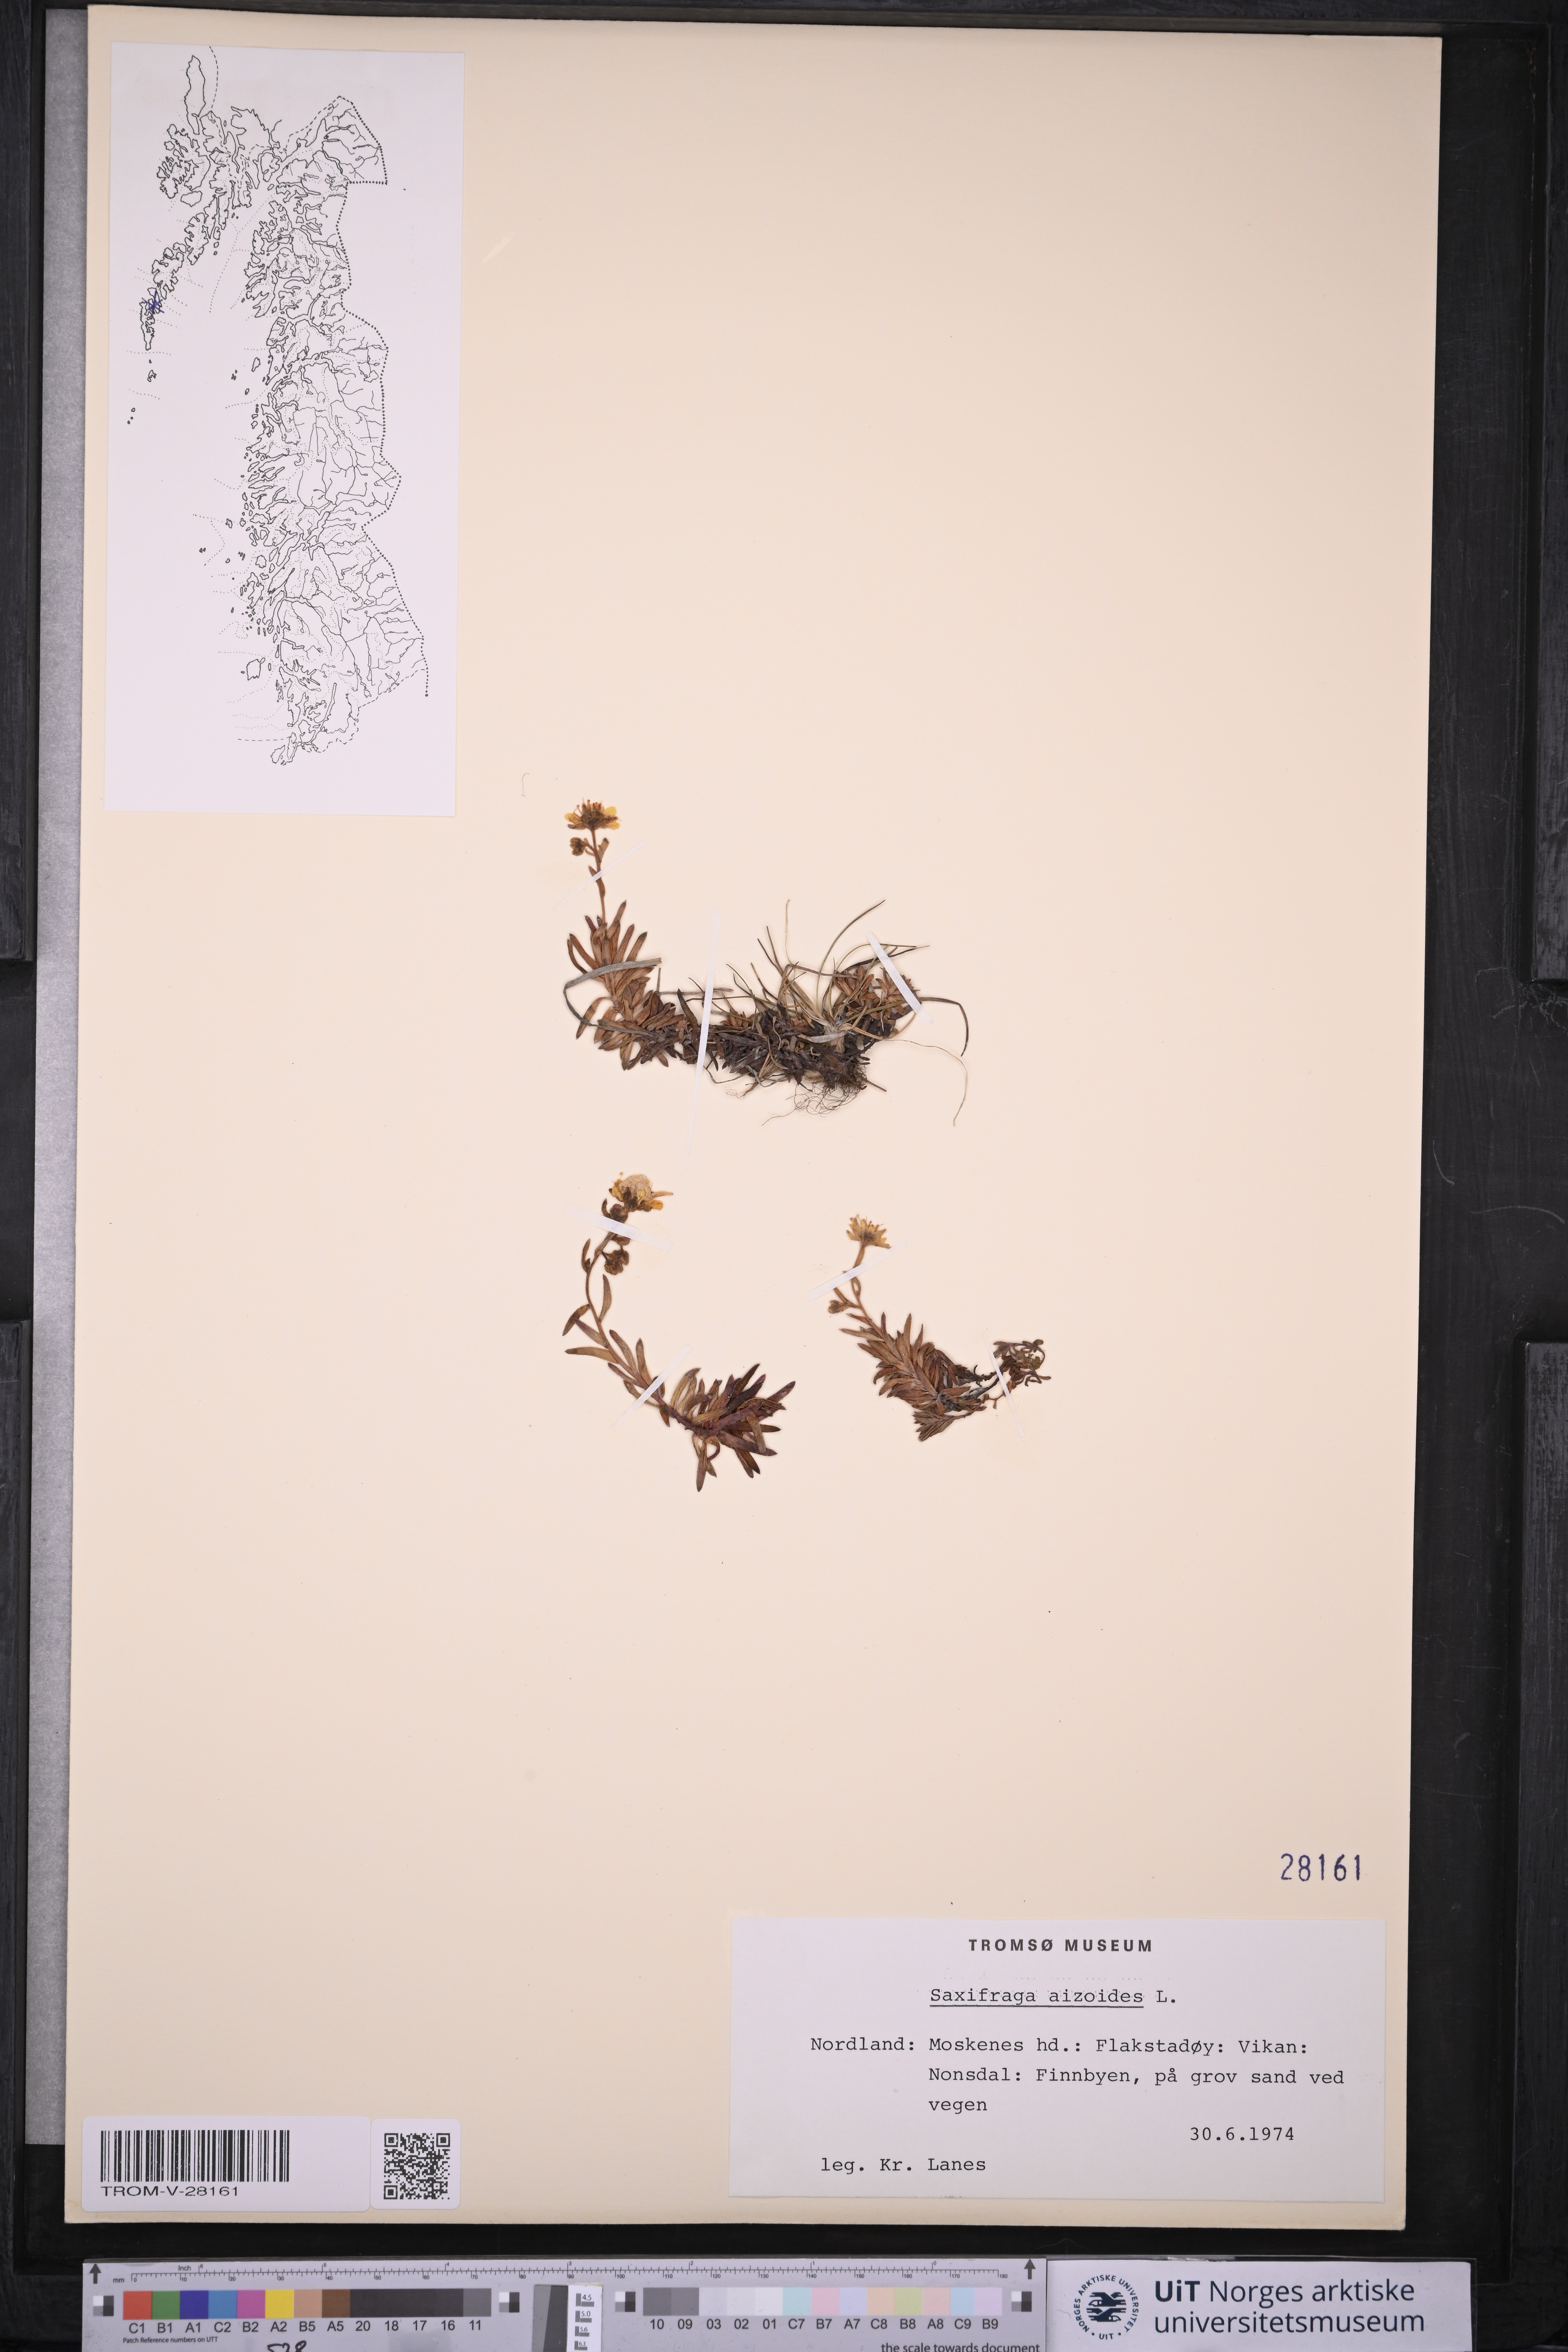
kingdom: Plantae
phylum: Tracheophyta
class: Magnoliopsida
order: Saxifragales
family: Saxifragaceae
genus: Saxifraga
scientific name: Saxifraga aizoides
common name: Yellow mountain saxifrage
